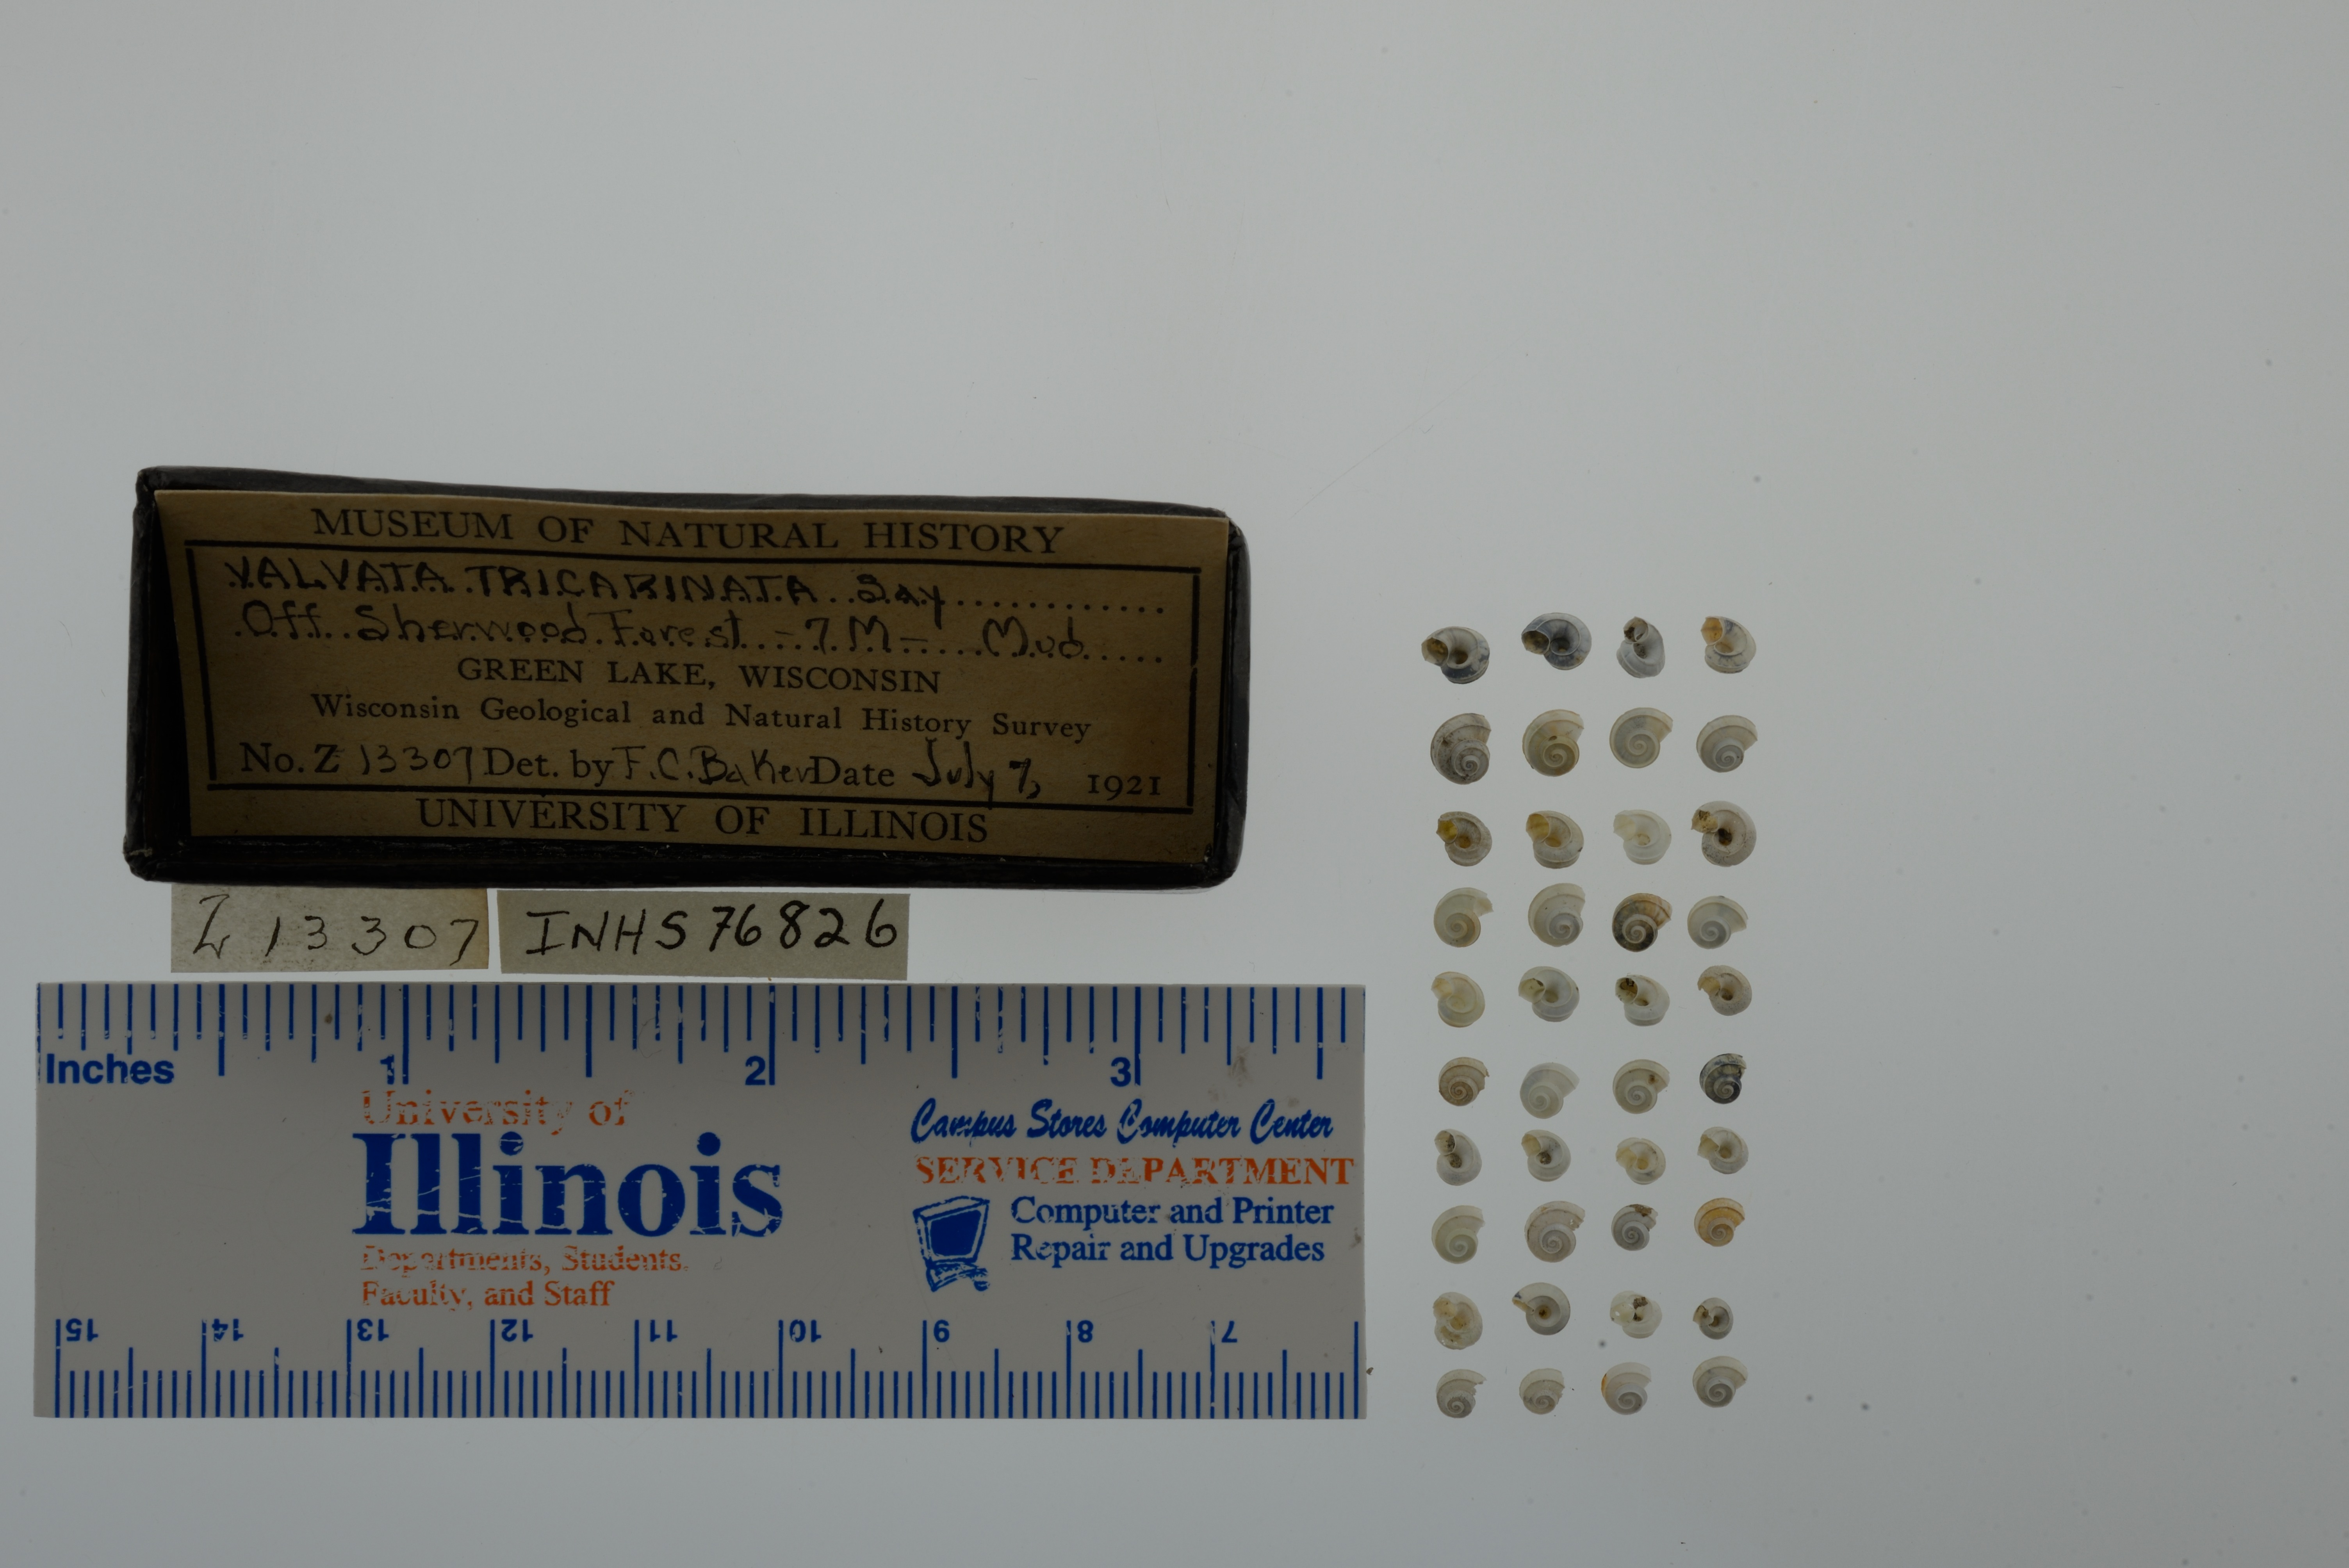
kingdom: Animalia
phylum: Mollusca
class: Gastropoda
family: Valvatidae
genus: Valvata
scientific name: Valvata tricarinata
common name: Three-ridge valvata
